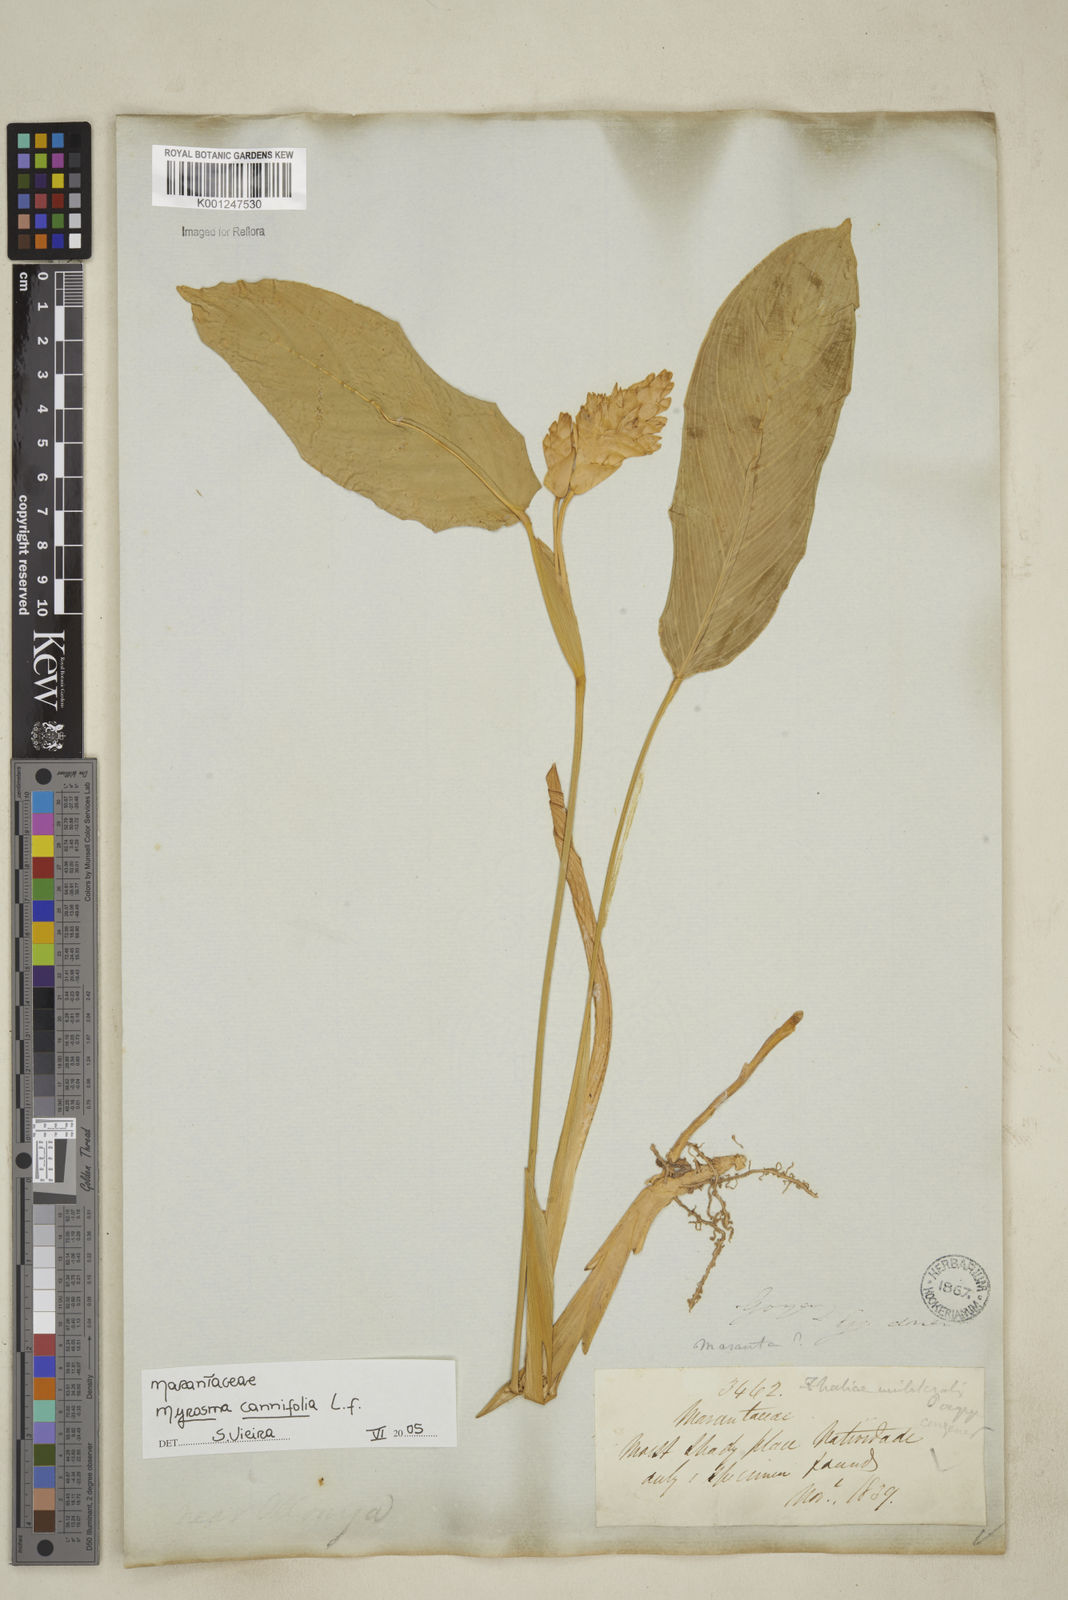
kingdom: Plantae
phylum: Tracheophyta
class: Liliopsida
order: Zingiberales
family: Marantaceae
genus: Myrosma
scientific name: Myrosma cannifolia
